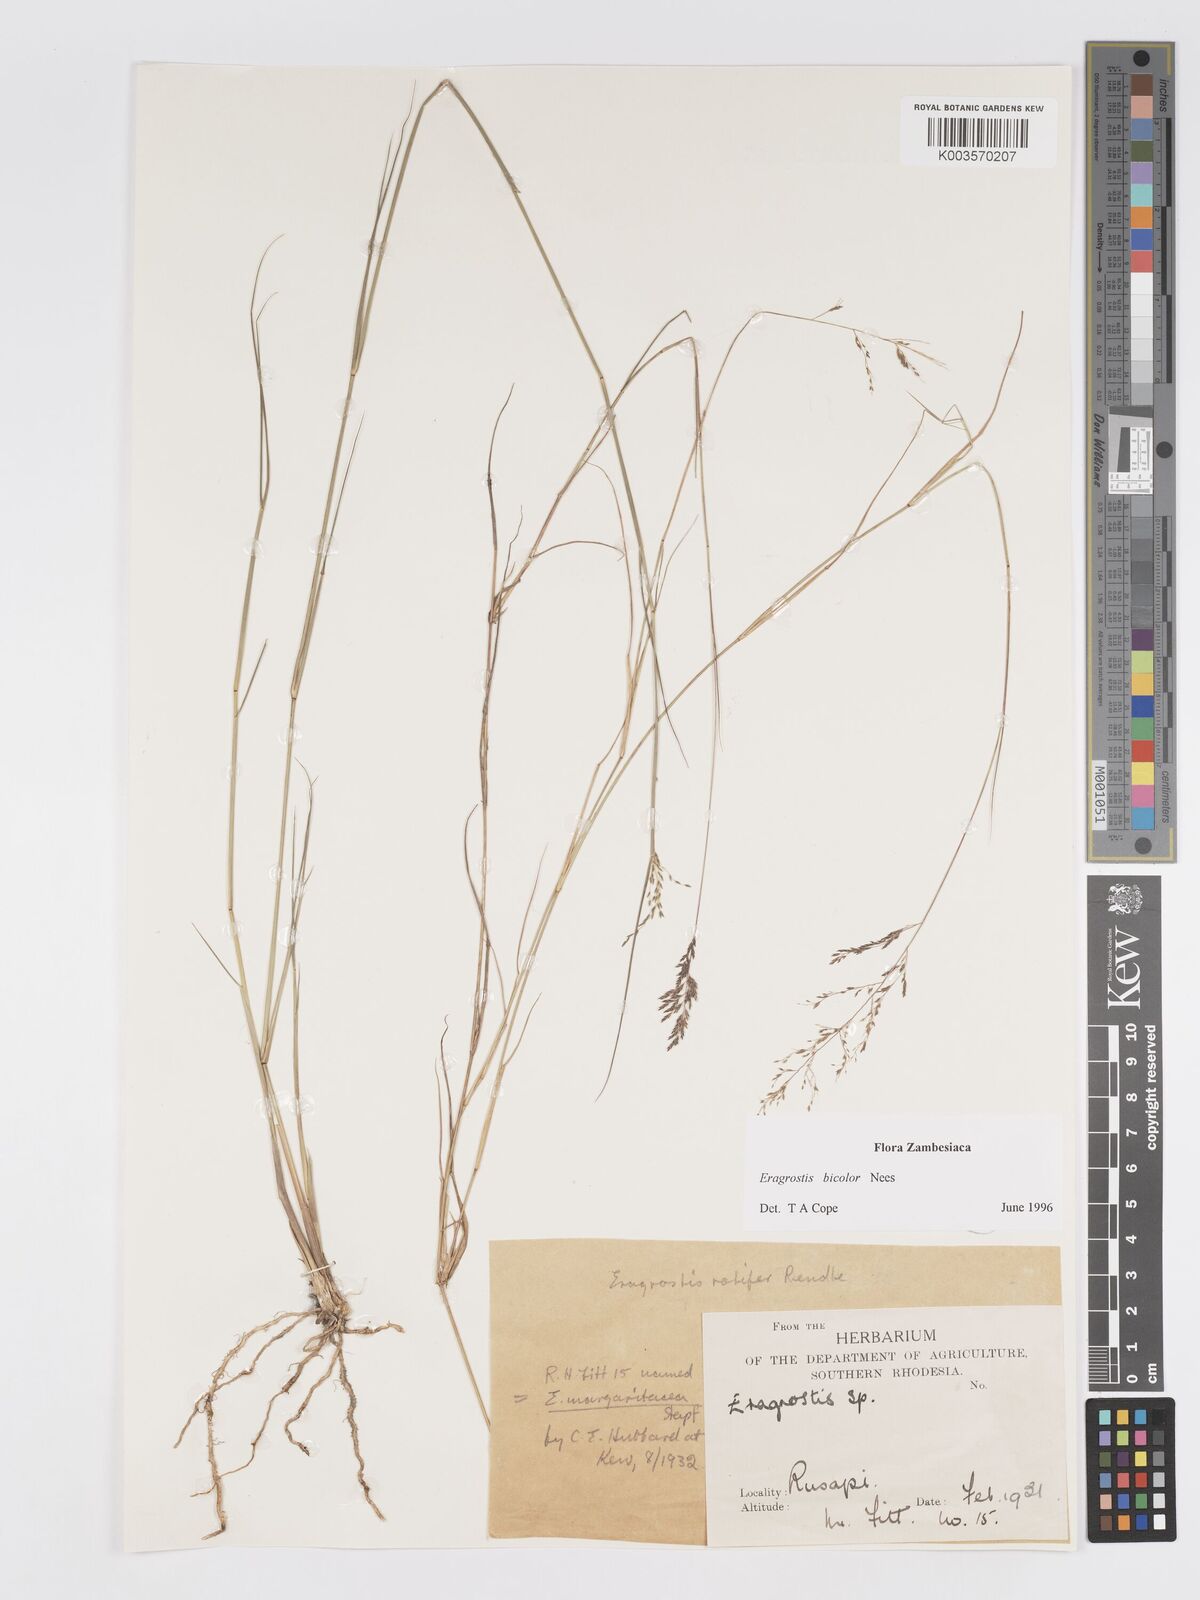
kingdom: Plantae
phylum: Tracheophyta
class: Liliopsida
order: Poales
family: Poaceae
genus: Eragrostis
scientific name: Eragrostis bicolor
